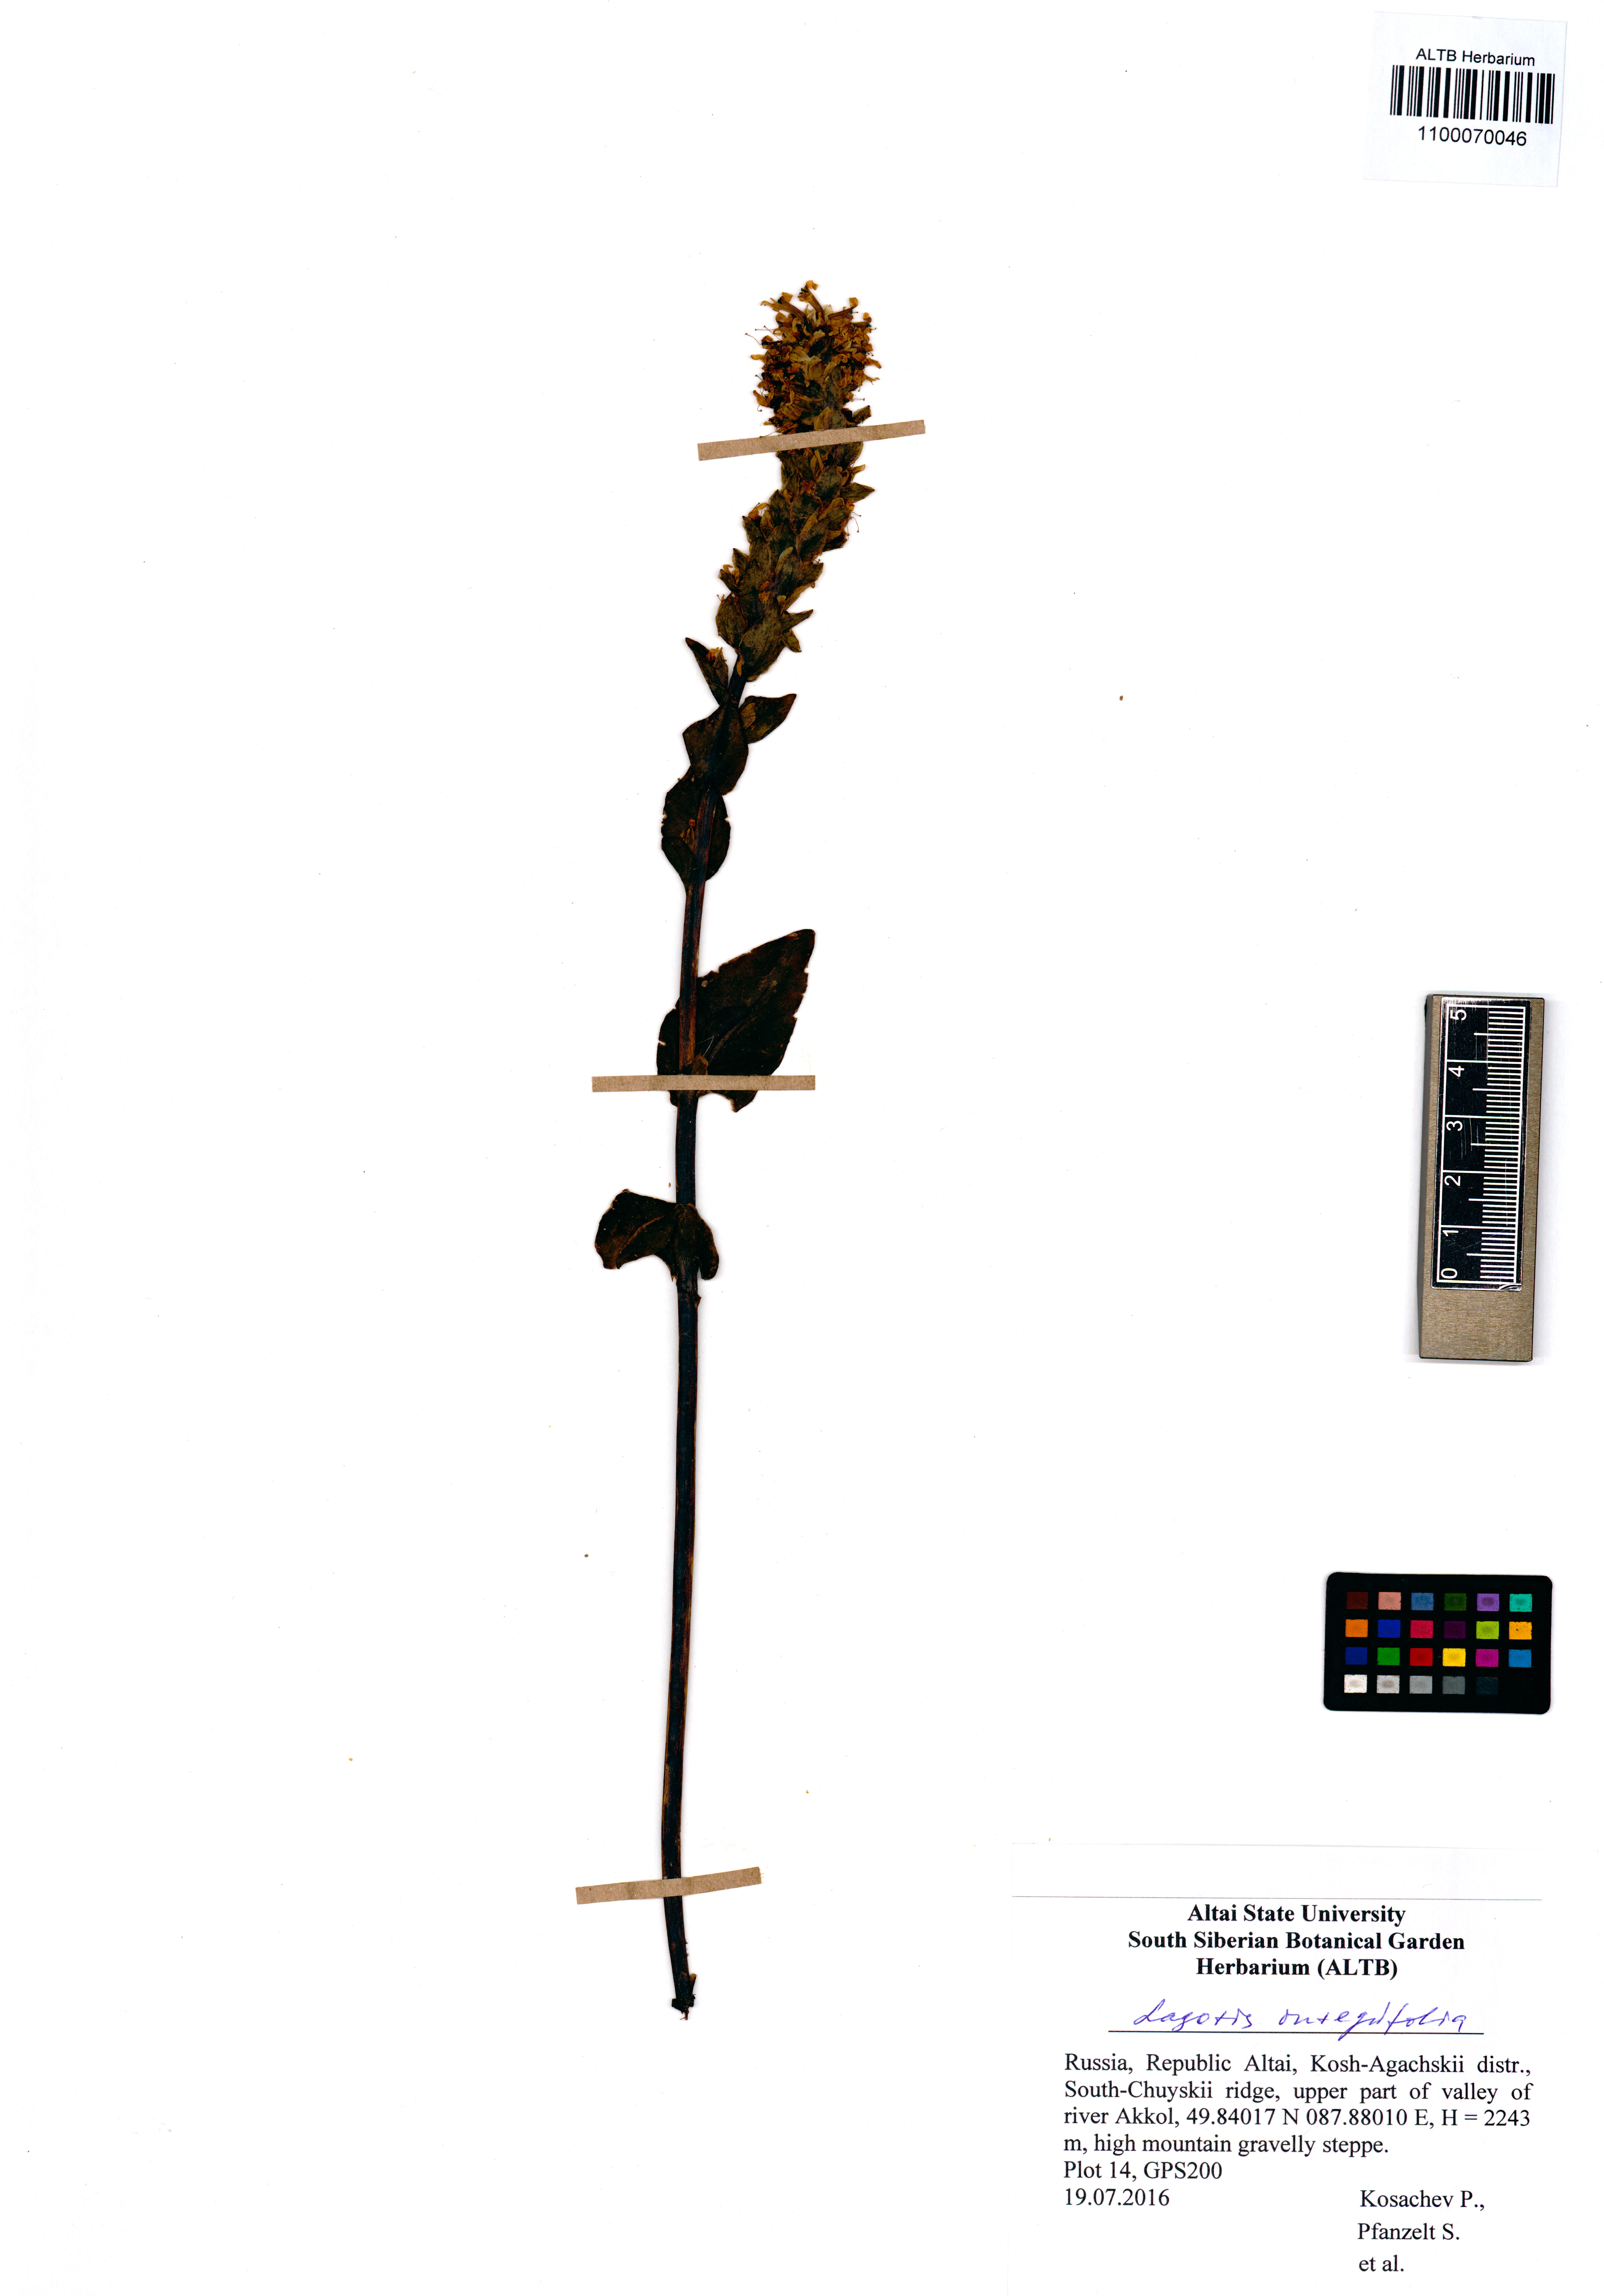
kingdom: Plantae
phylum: Tracheophyta
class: Magnoliopsida
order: Lamiales
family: Plantaginaceae
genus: Lagotis
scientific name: Lagotis integrifolia
